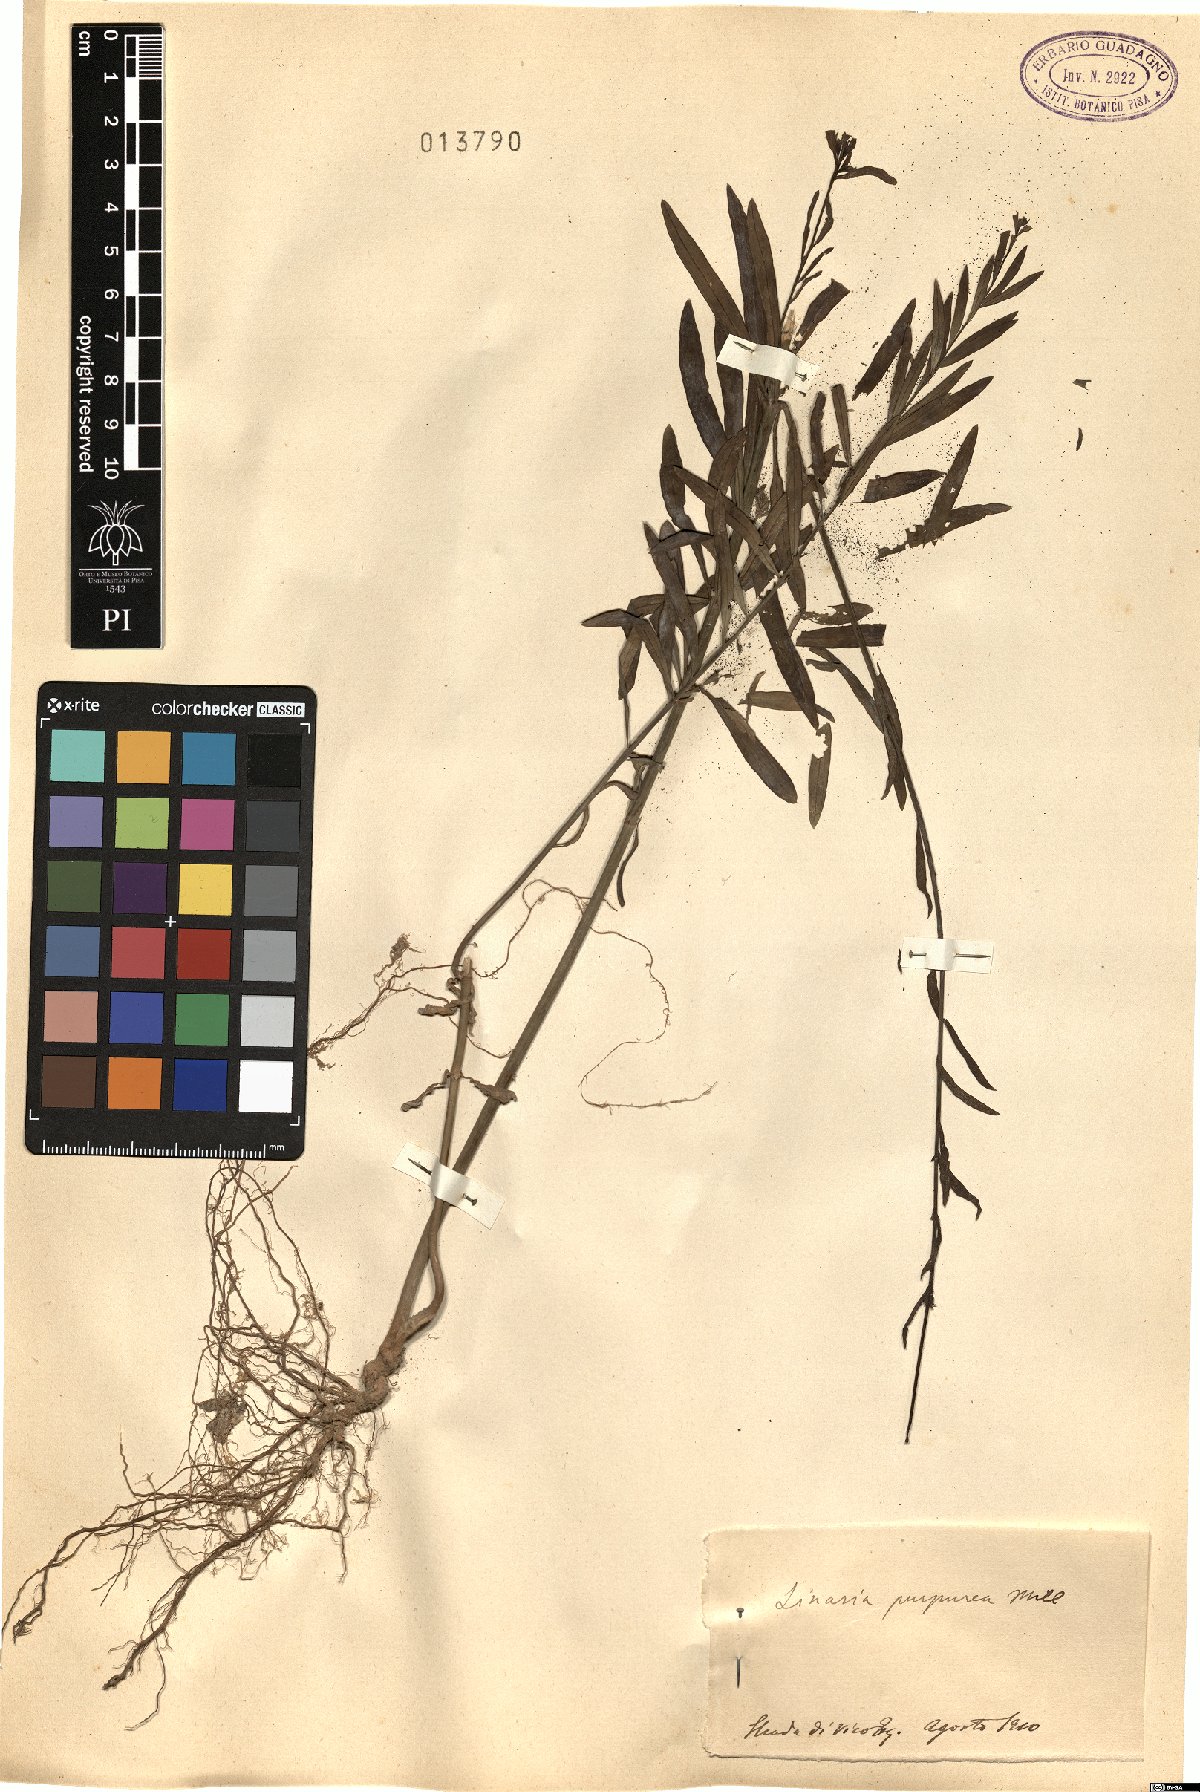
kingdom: Plantae
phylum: Tracheophyta
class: Magnoliopsida
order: Lamiales
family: Plantaginaceae
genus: Linaria
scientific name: Linaria purpurea
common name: Purple toadflax
